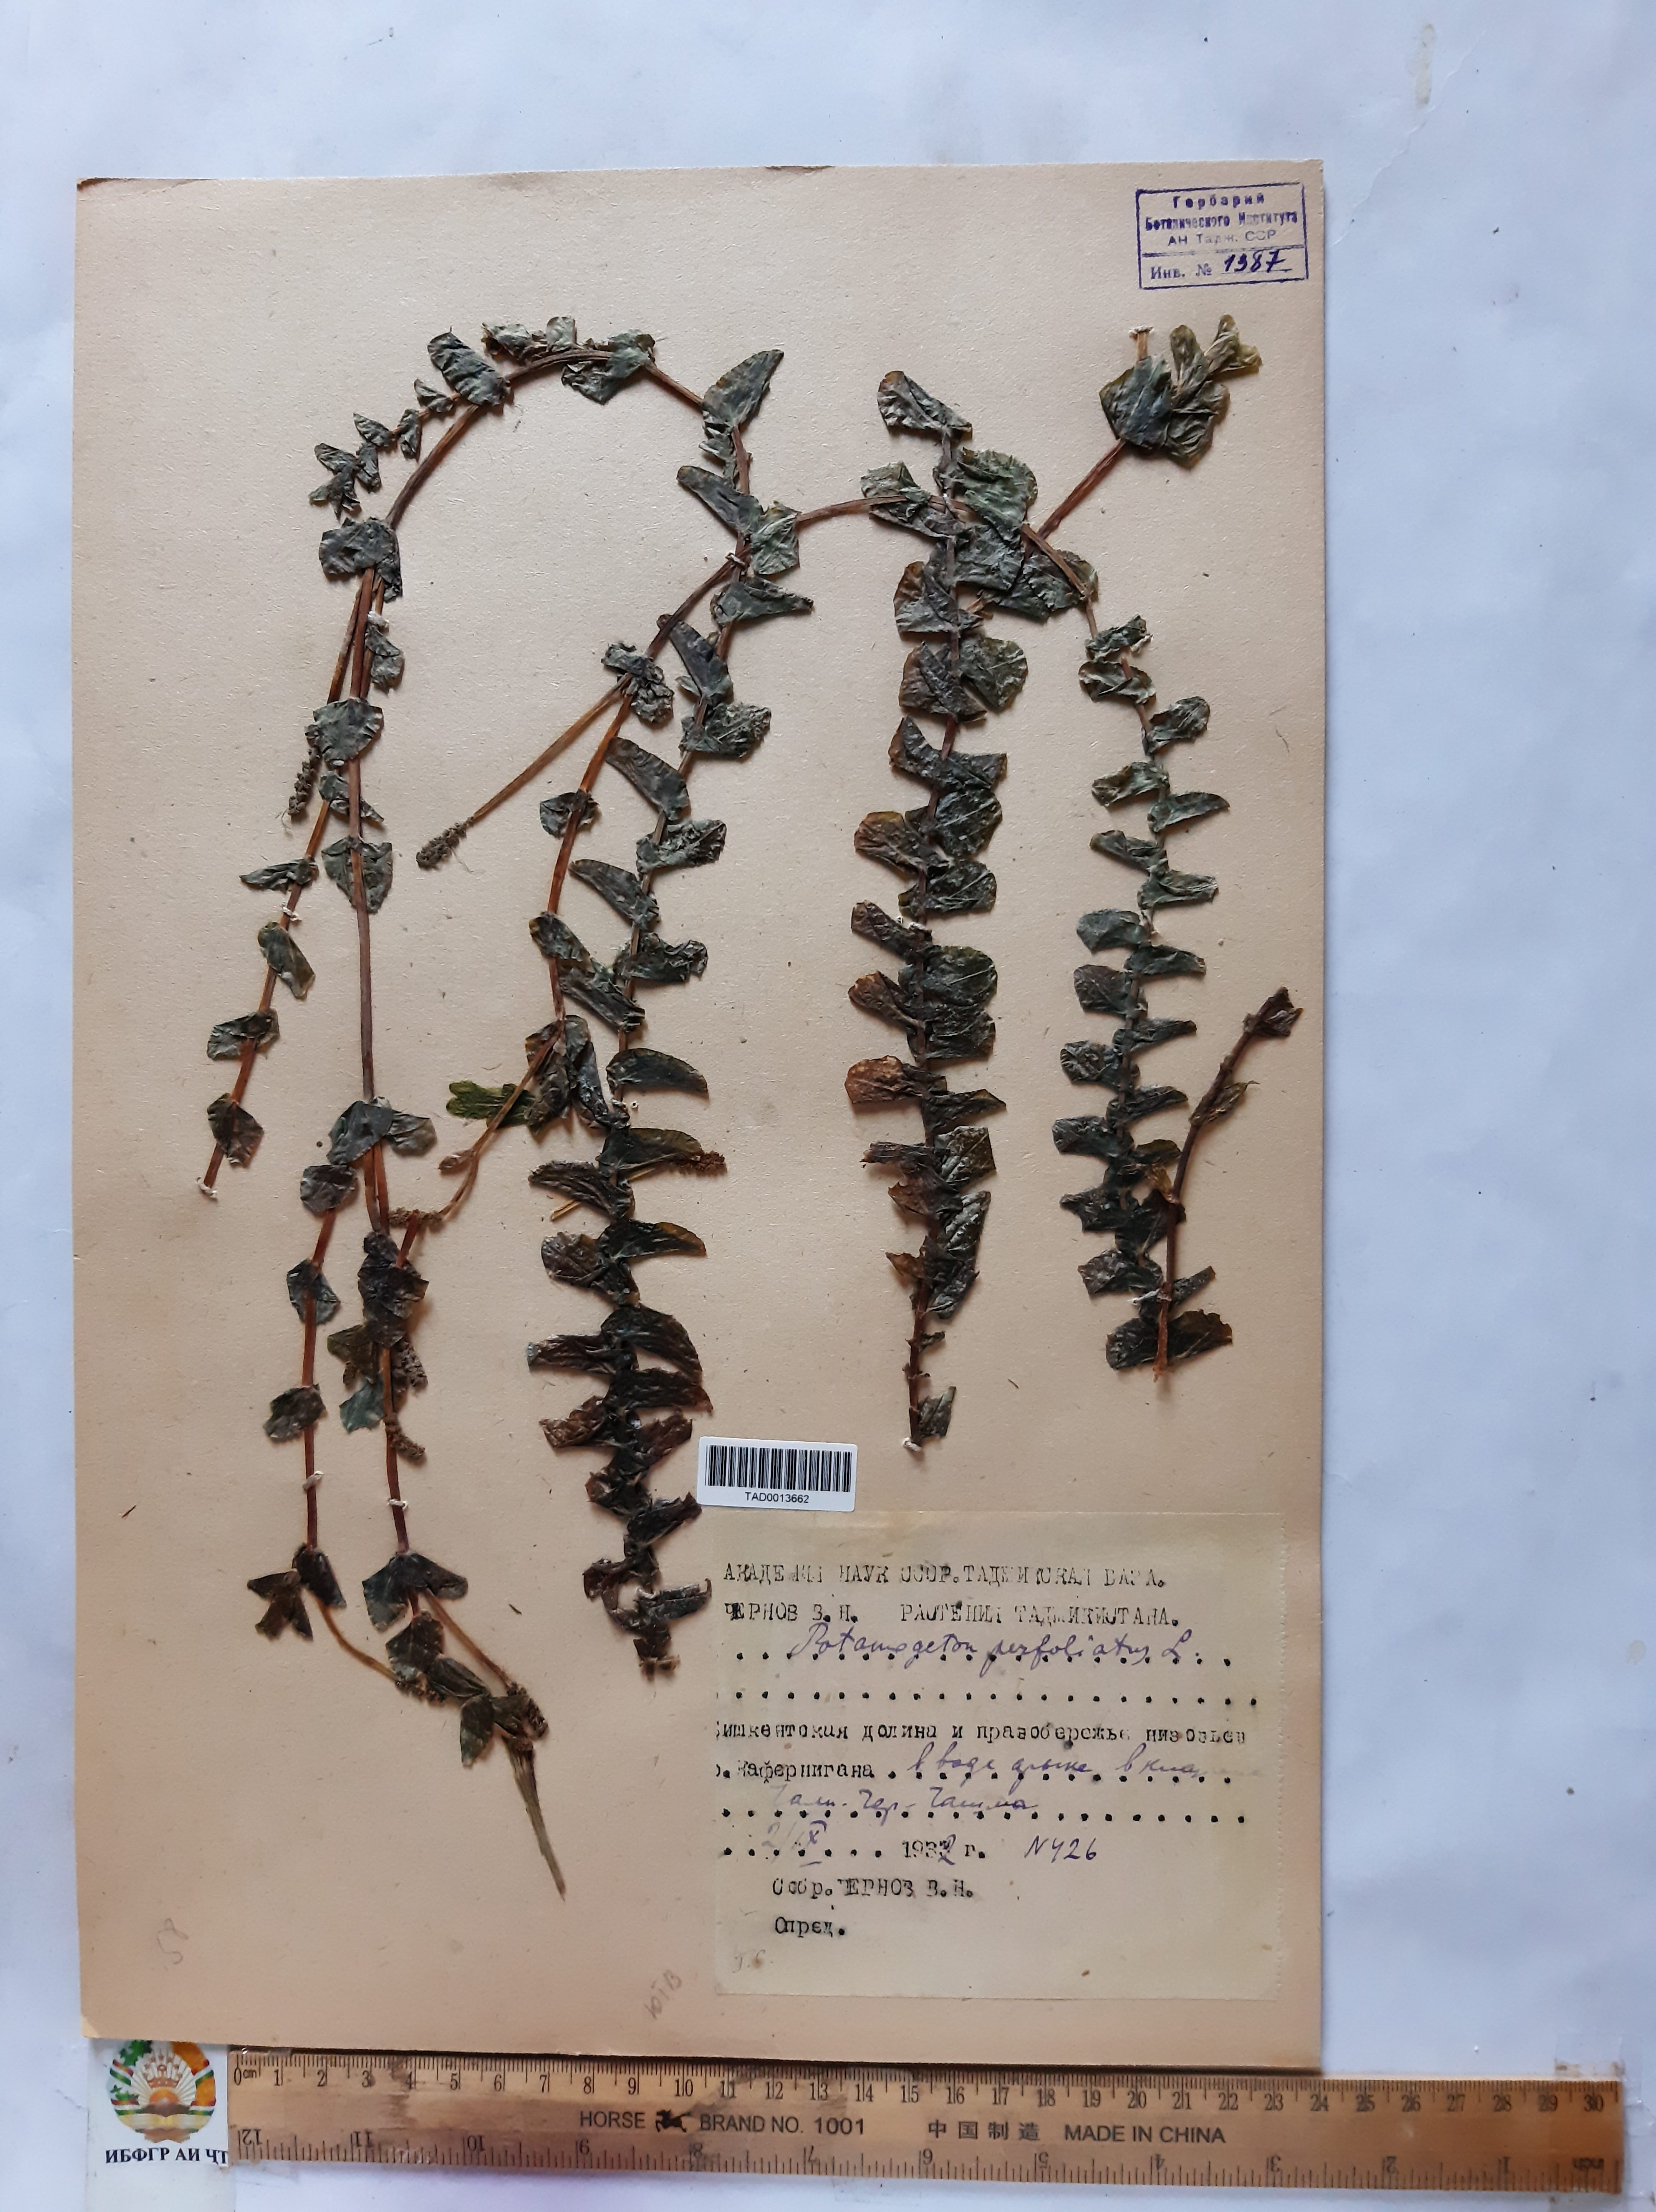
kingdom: Plantae
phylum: Tracheophyta
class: Liliopsida
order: Alismatales
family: Potamogetonaceae
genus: Potamogeton
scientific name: Potamogeton perfoliatus
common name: Perfoliate pondweed
